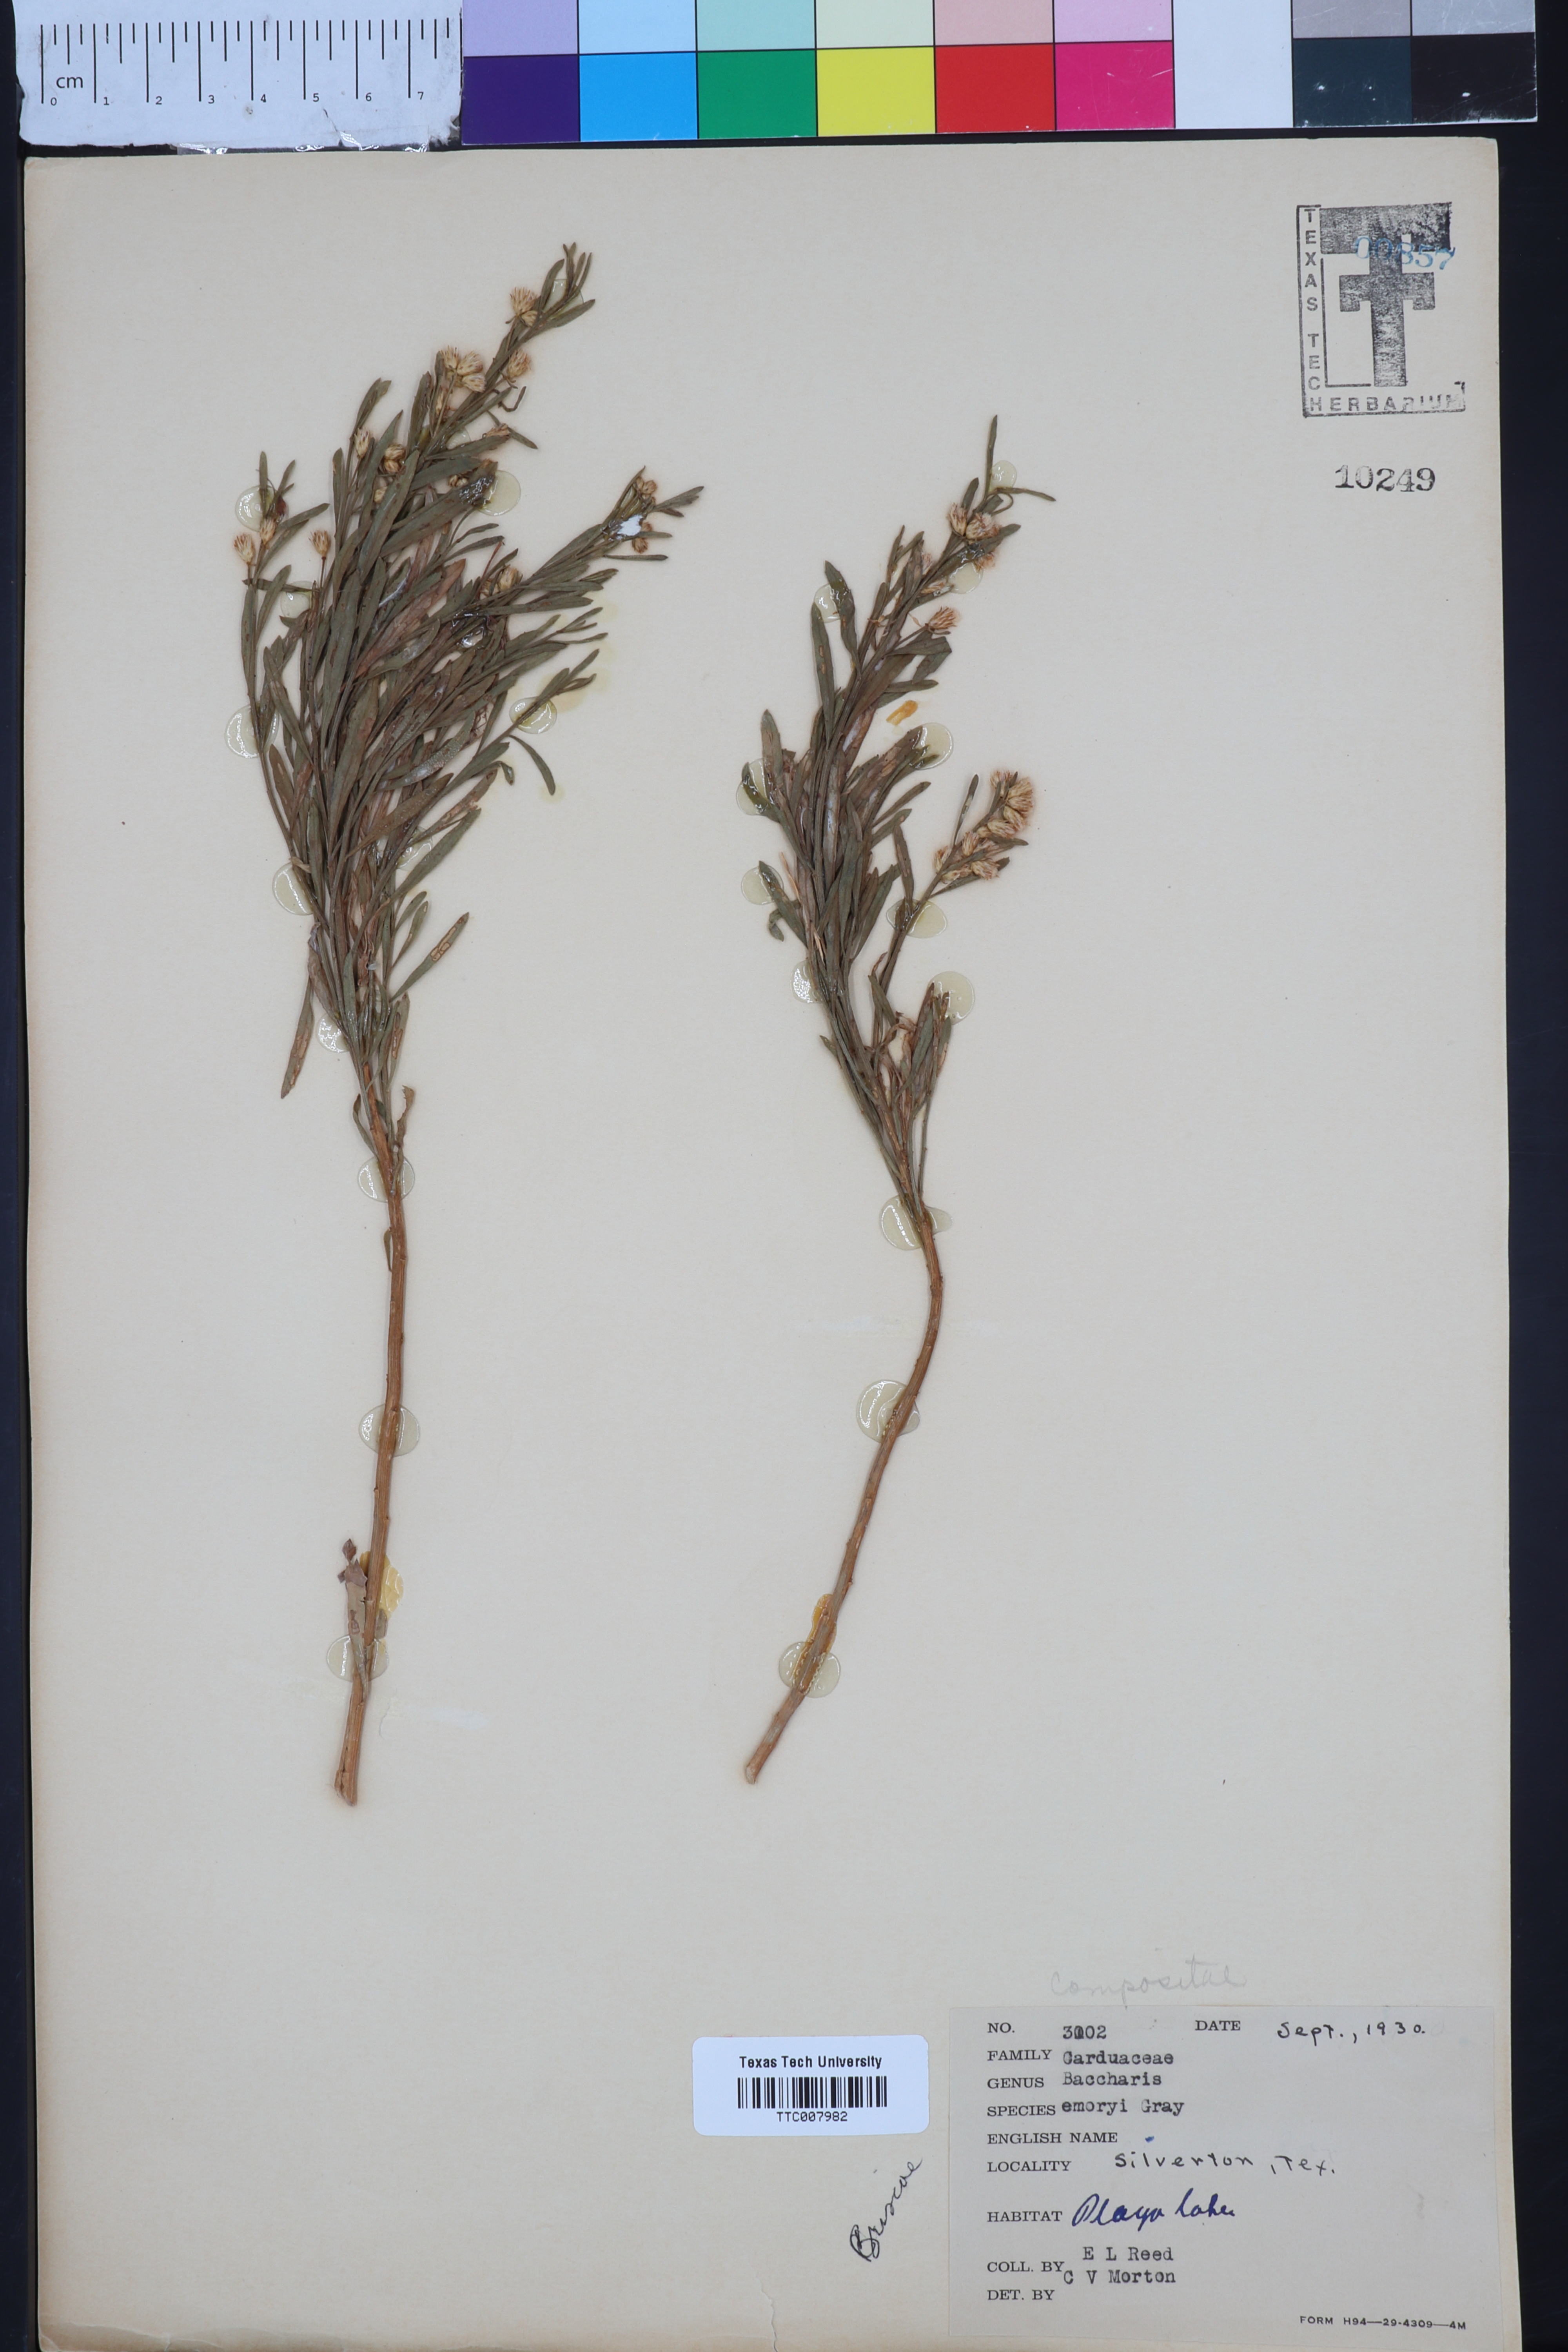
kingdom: Plantae
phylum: Tracheophyta
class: Magnoliopsida
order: Asterales
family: Asteraceae
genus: Baccharis
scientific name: Baccharis salicina
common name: Willow baccharis
